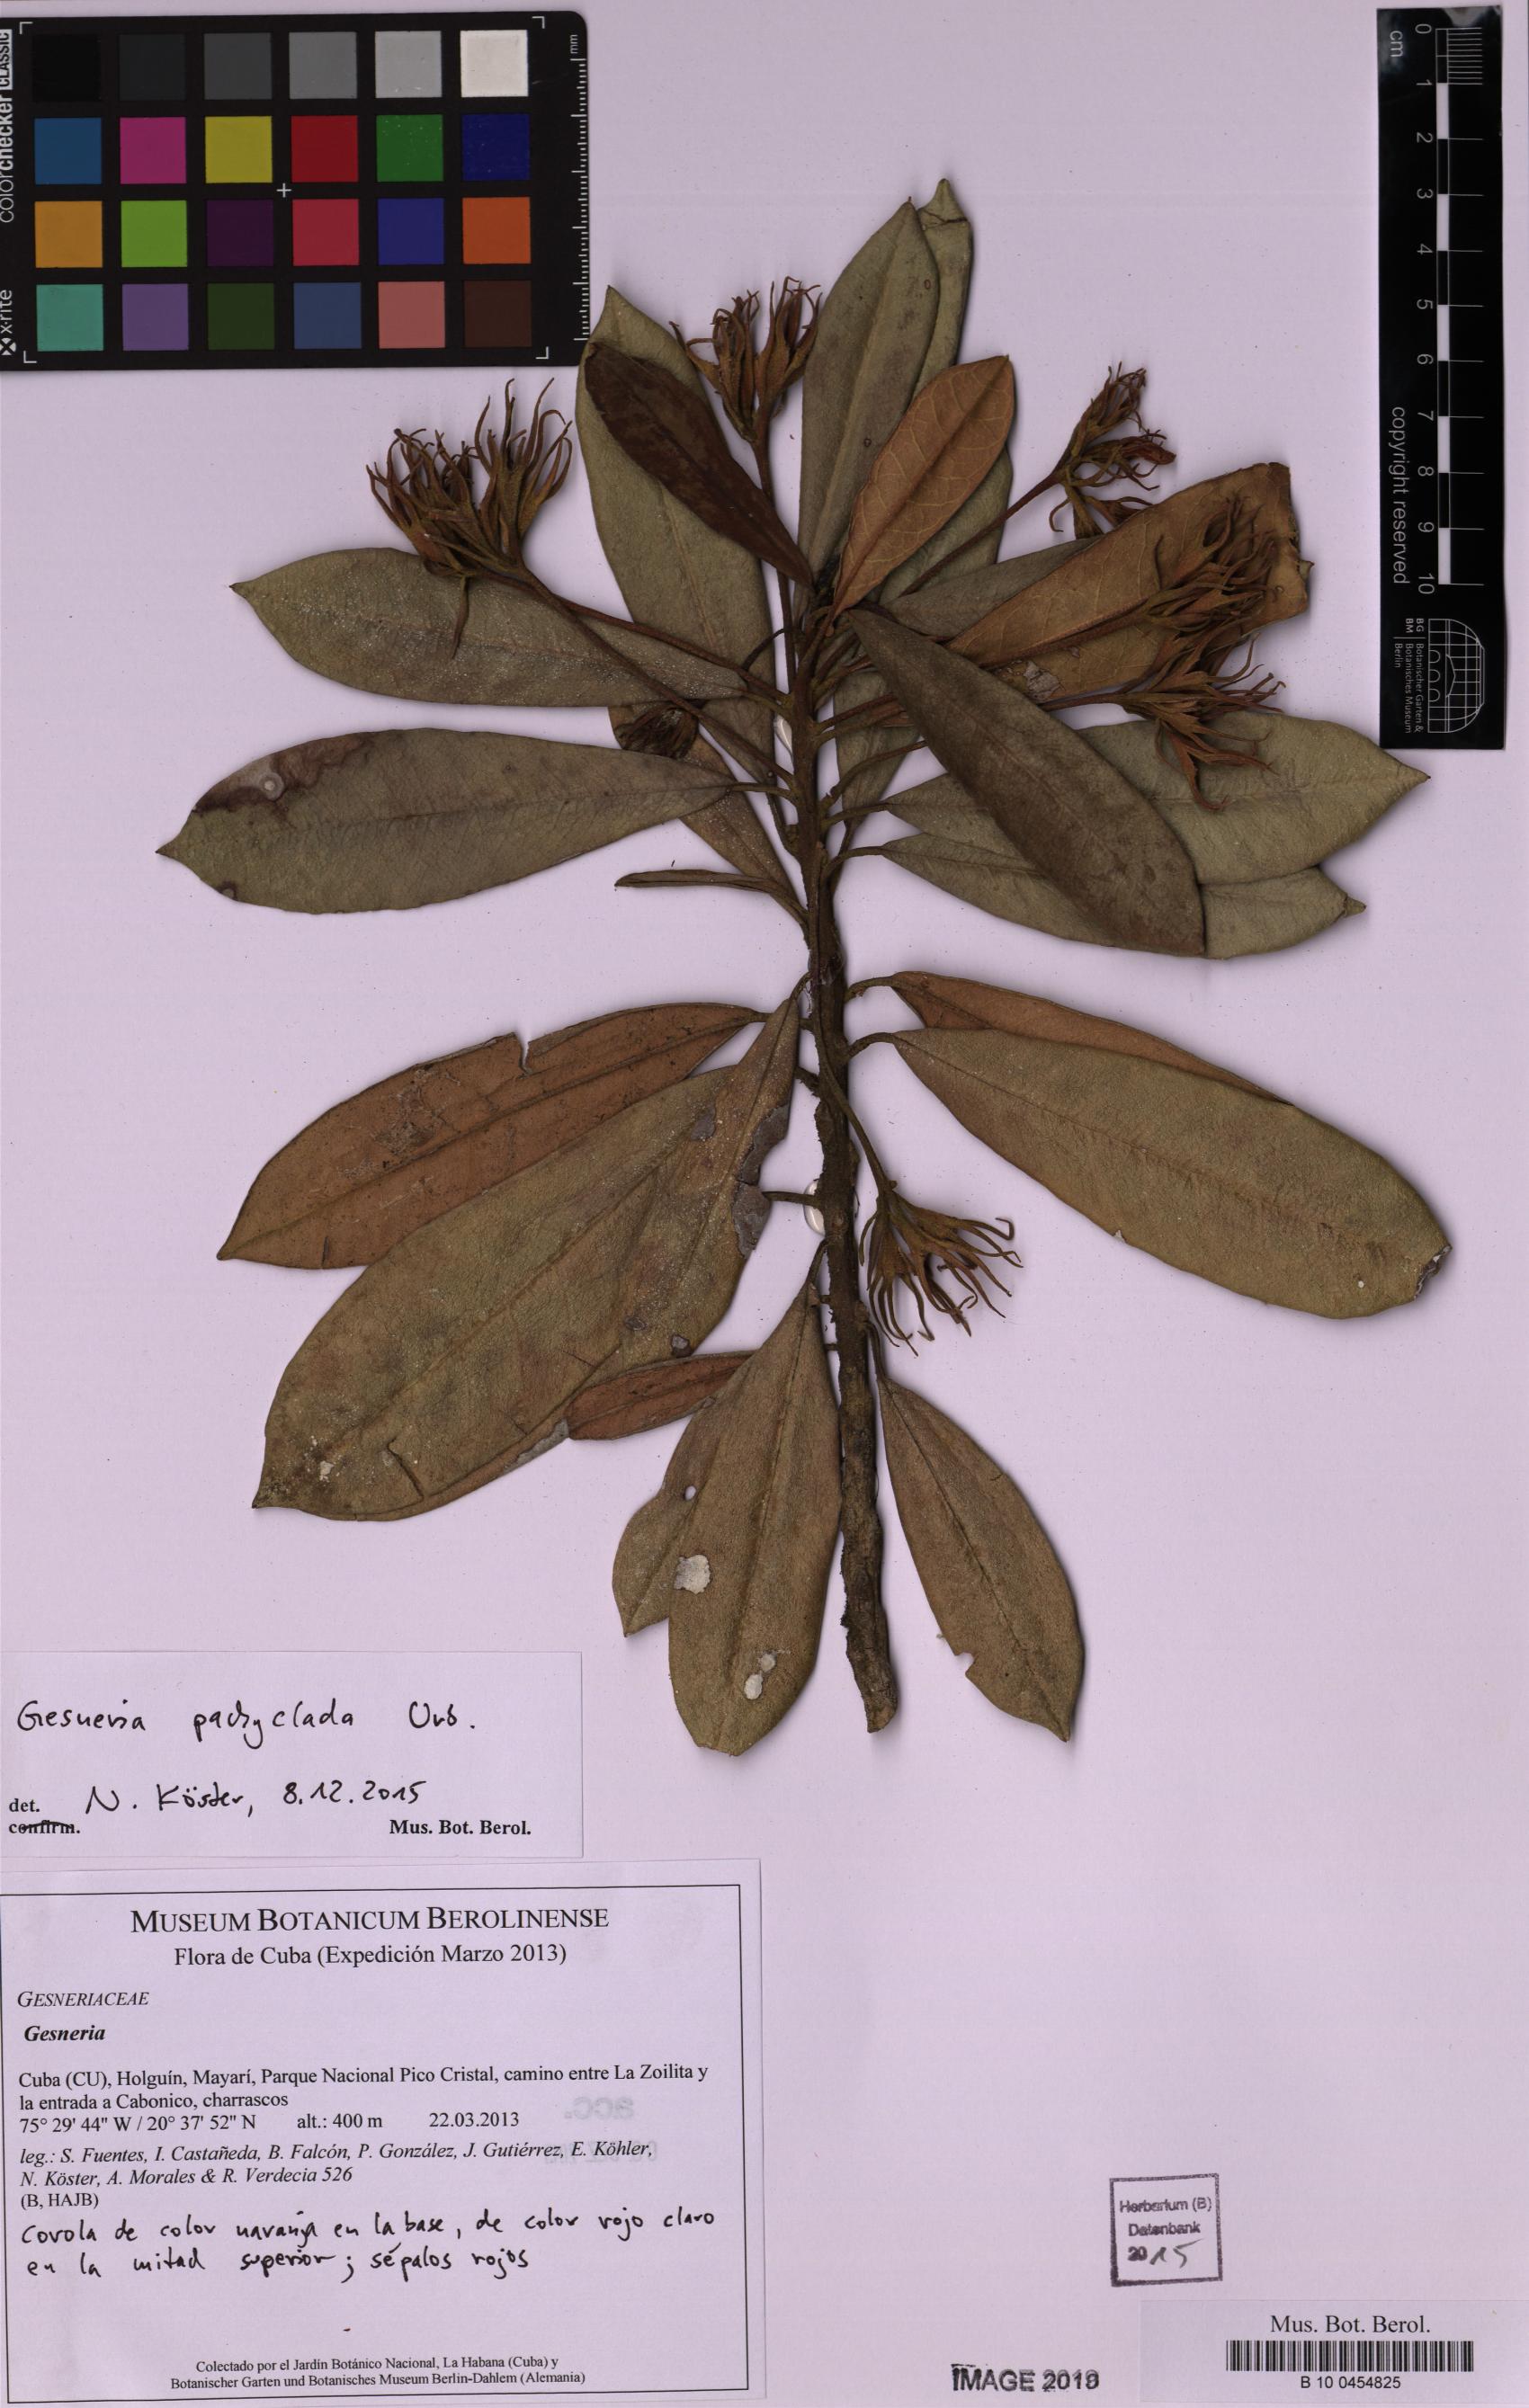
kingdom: Plantae
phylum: Tracheophyta
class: Magnoliopsida
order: Lamiales
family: Gesneriaceae
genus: Gesneria
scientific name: Gesneria
